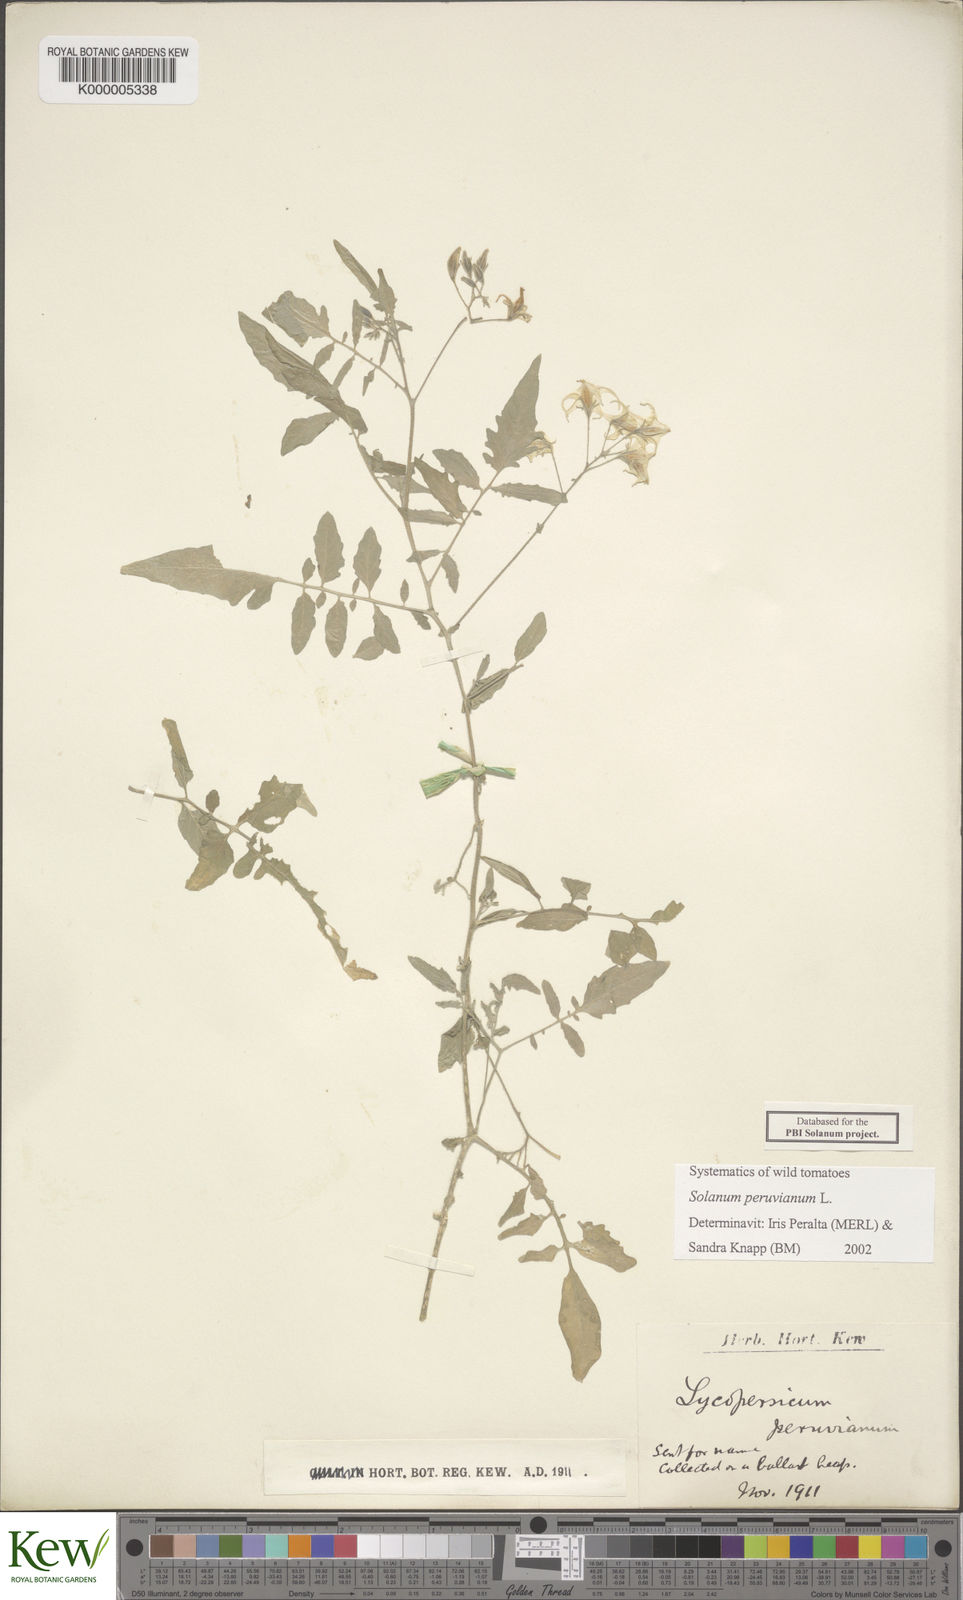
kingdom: Plantae
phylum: Tracheophyta
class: Magnoliopsida
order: Solanales
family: Solanaceae
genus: Solanum
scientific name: Solanum peruvianum
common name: Peruvian nightshade
